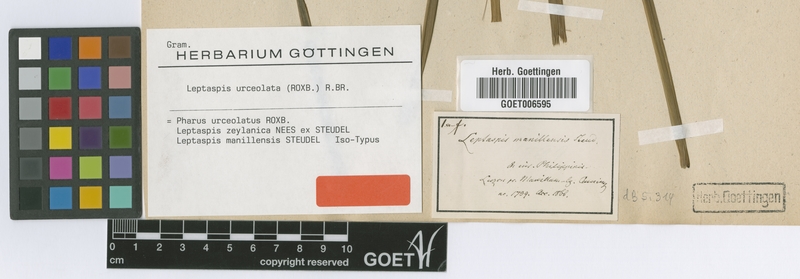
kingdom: Plantae
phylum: Tracheophyta
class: Liliopsida
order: Poales
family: Poaceae
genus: Scrotochloa
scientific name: Scrotochloa urceolata
